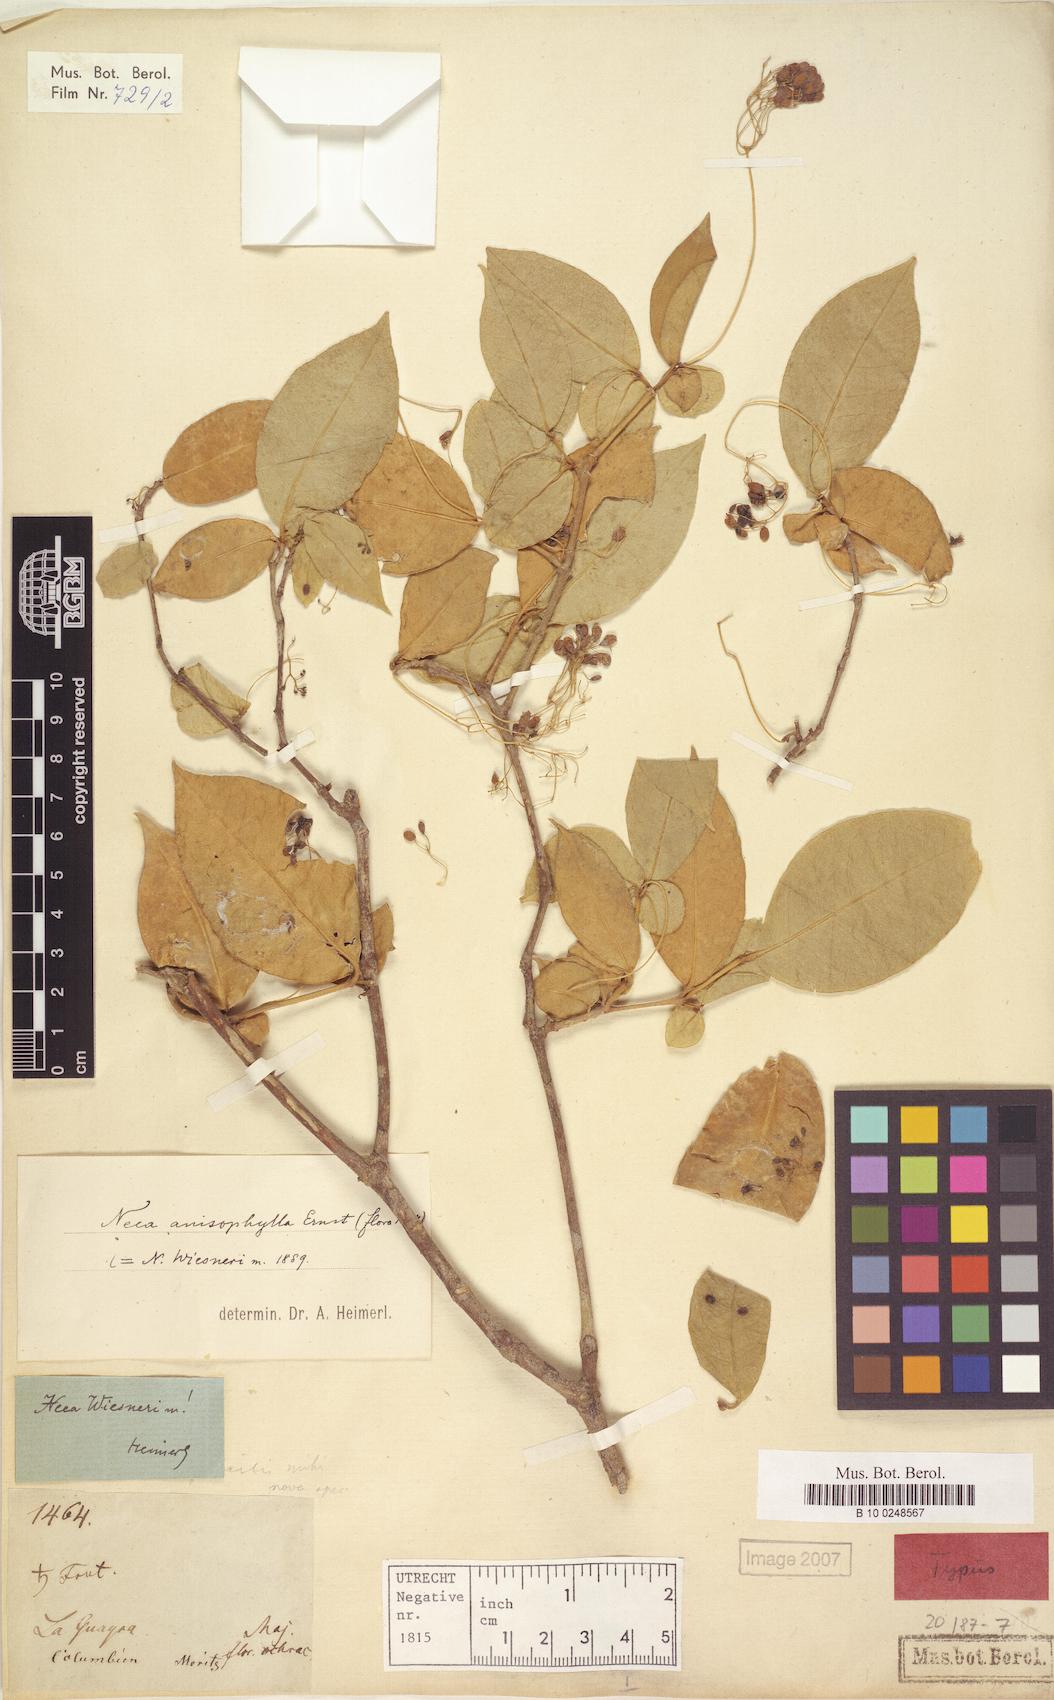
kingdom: Plantae
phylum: Tracheophyta
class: Magnoliopsida
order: Caryophyllales
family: Nyctaginaceae
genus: Neea
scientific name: Neea anisophylla
